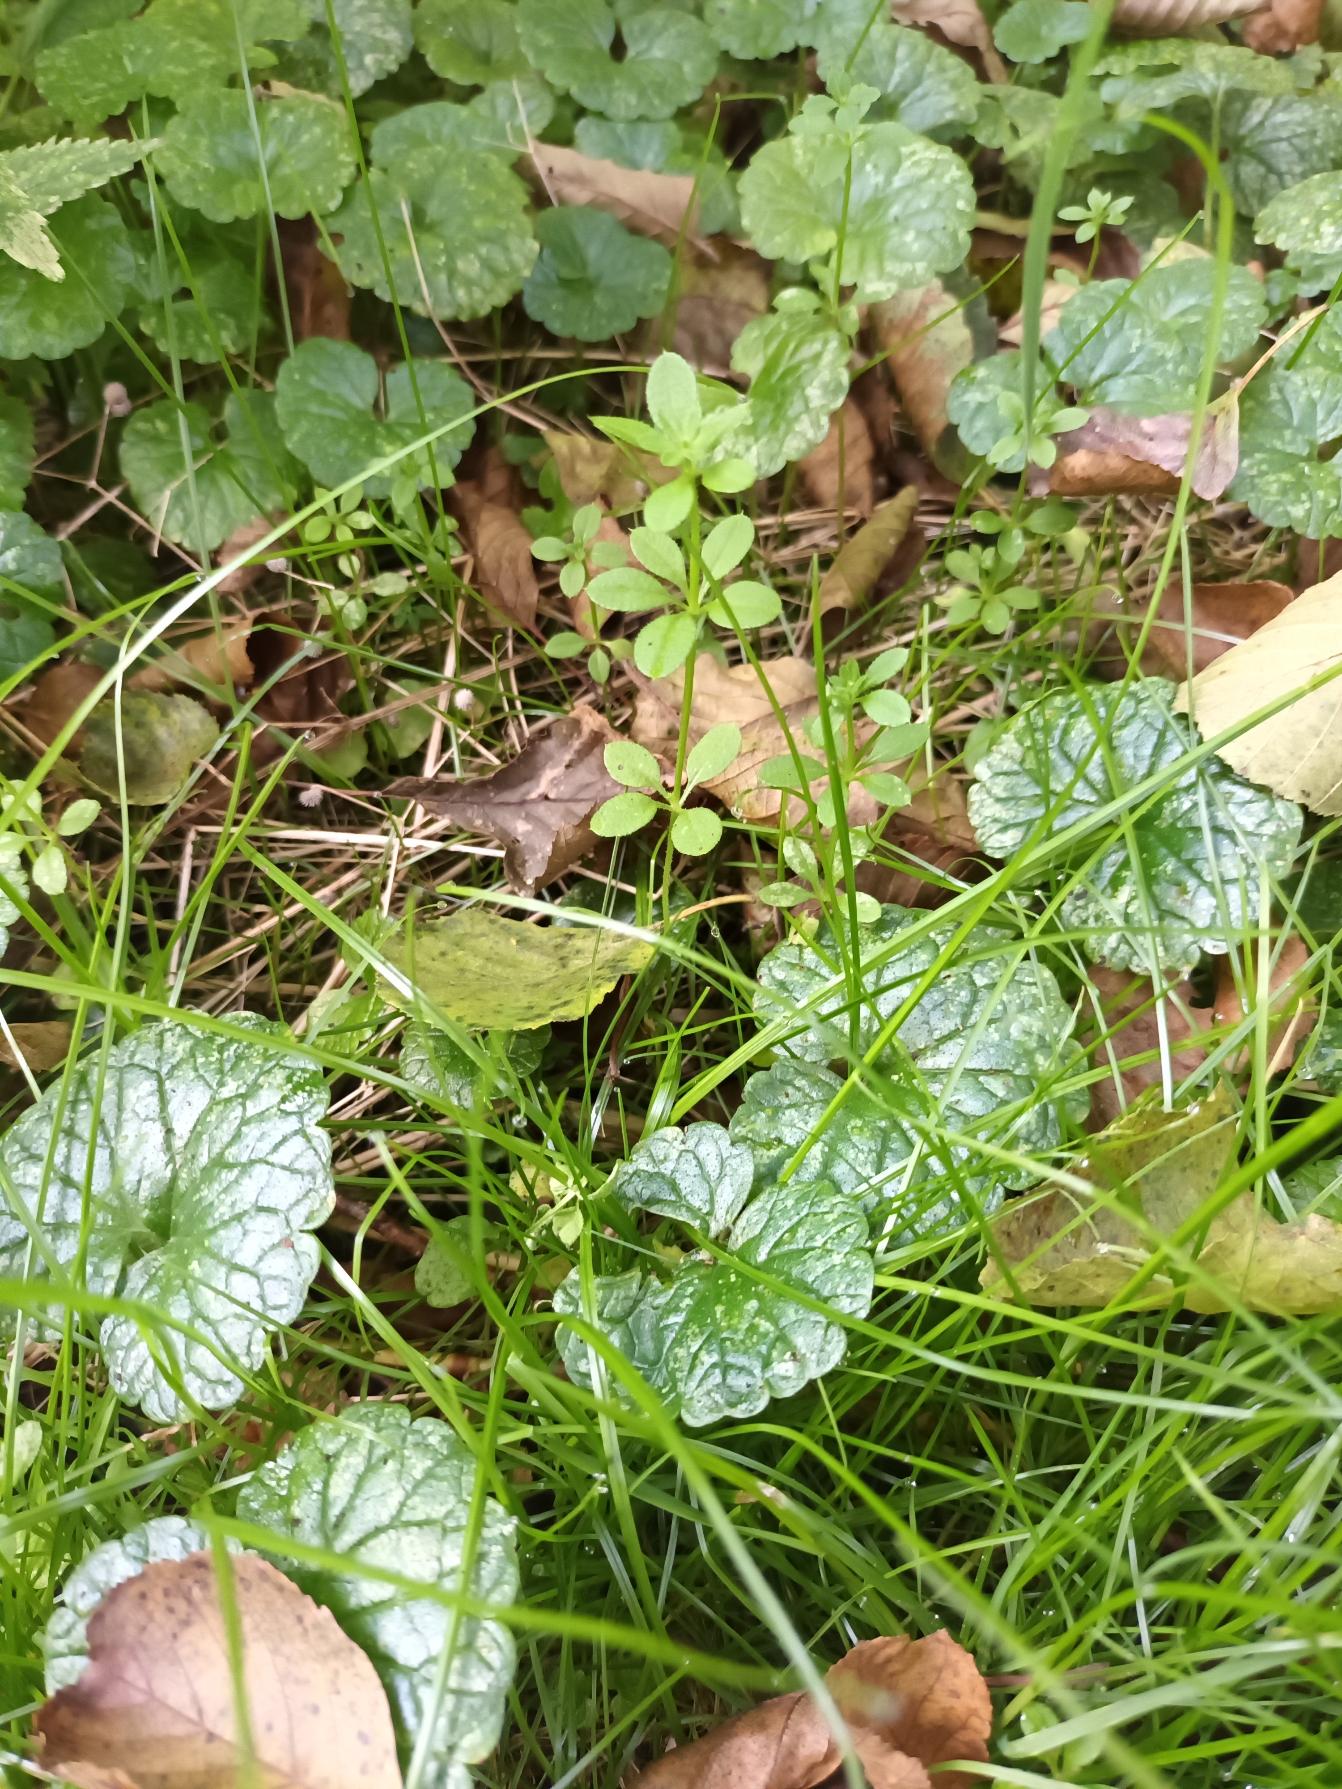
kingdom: Plantae
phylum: Tracheophyta
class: Magnoliopsida
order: Gentianales
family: Rubiaceae
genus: Galium
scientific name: Galium aparine
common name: Burre-snerre
